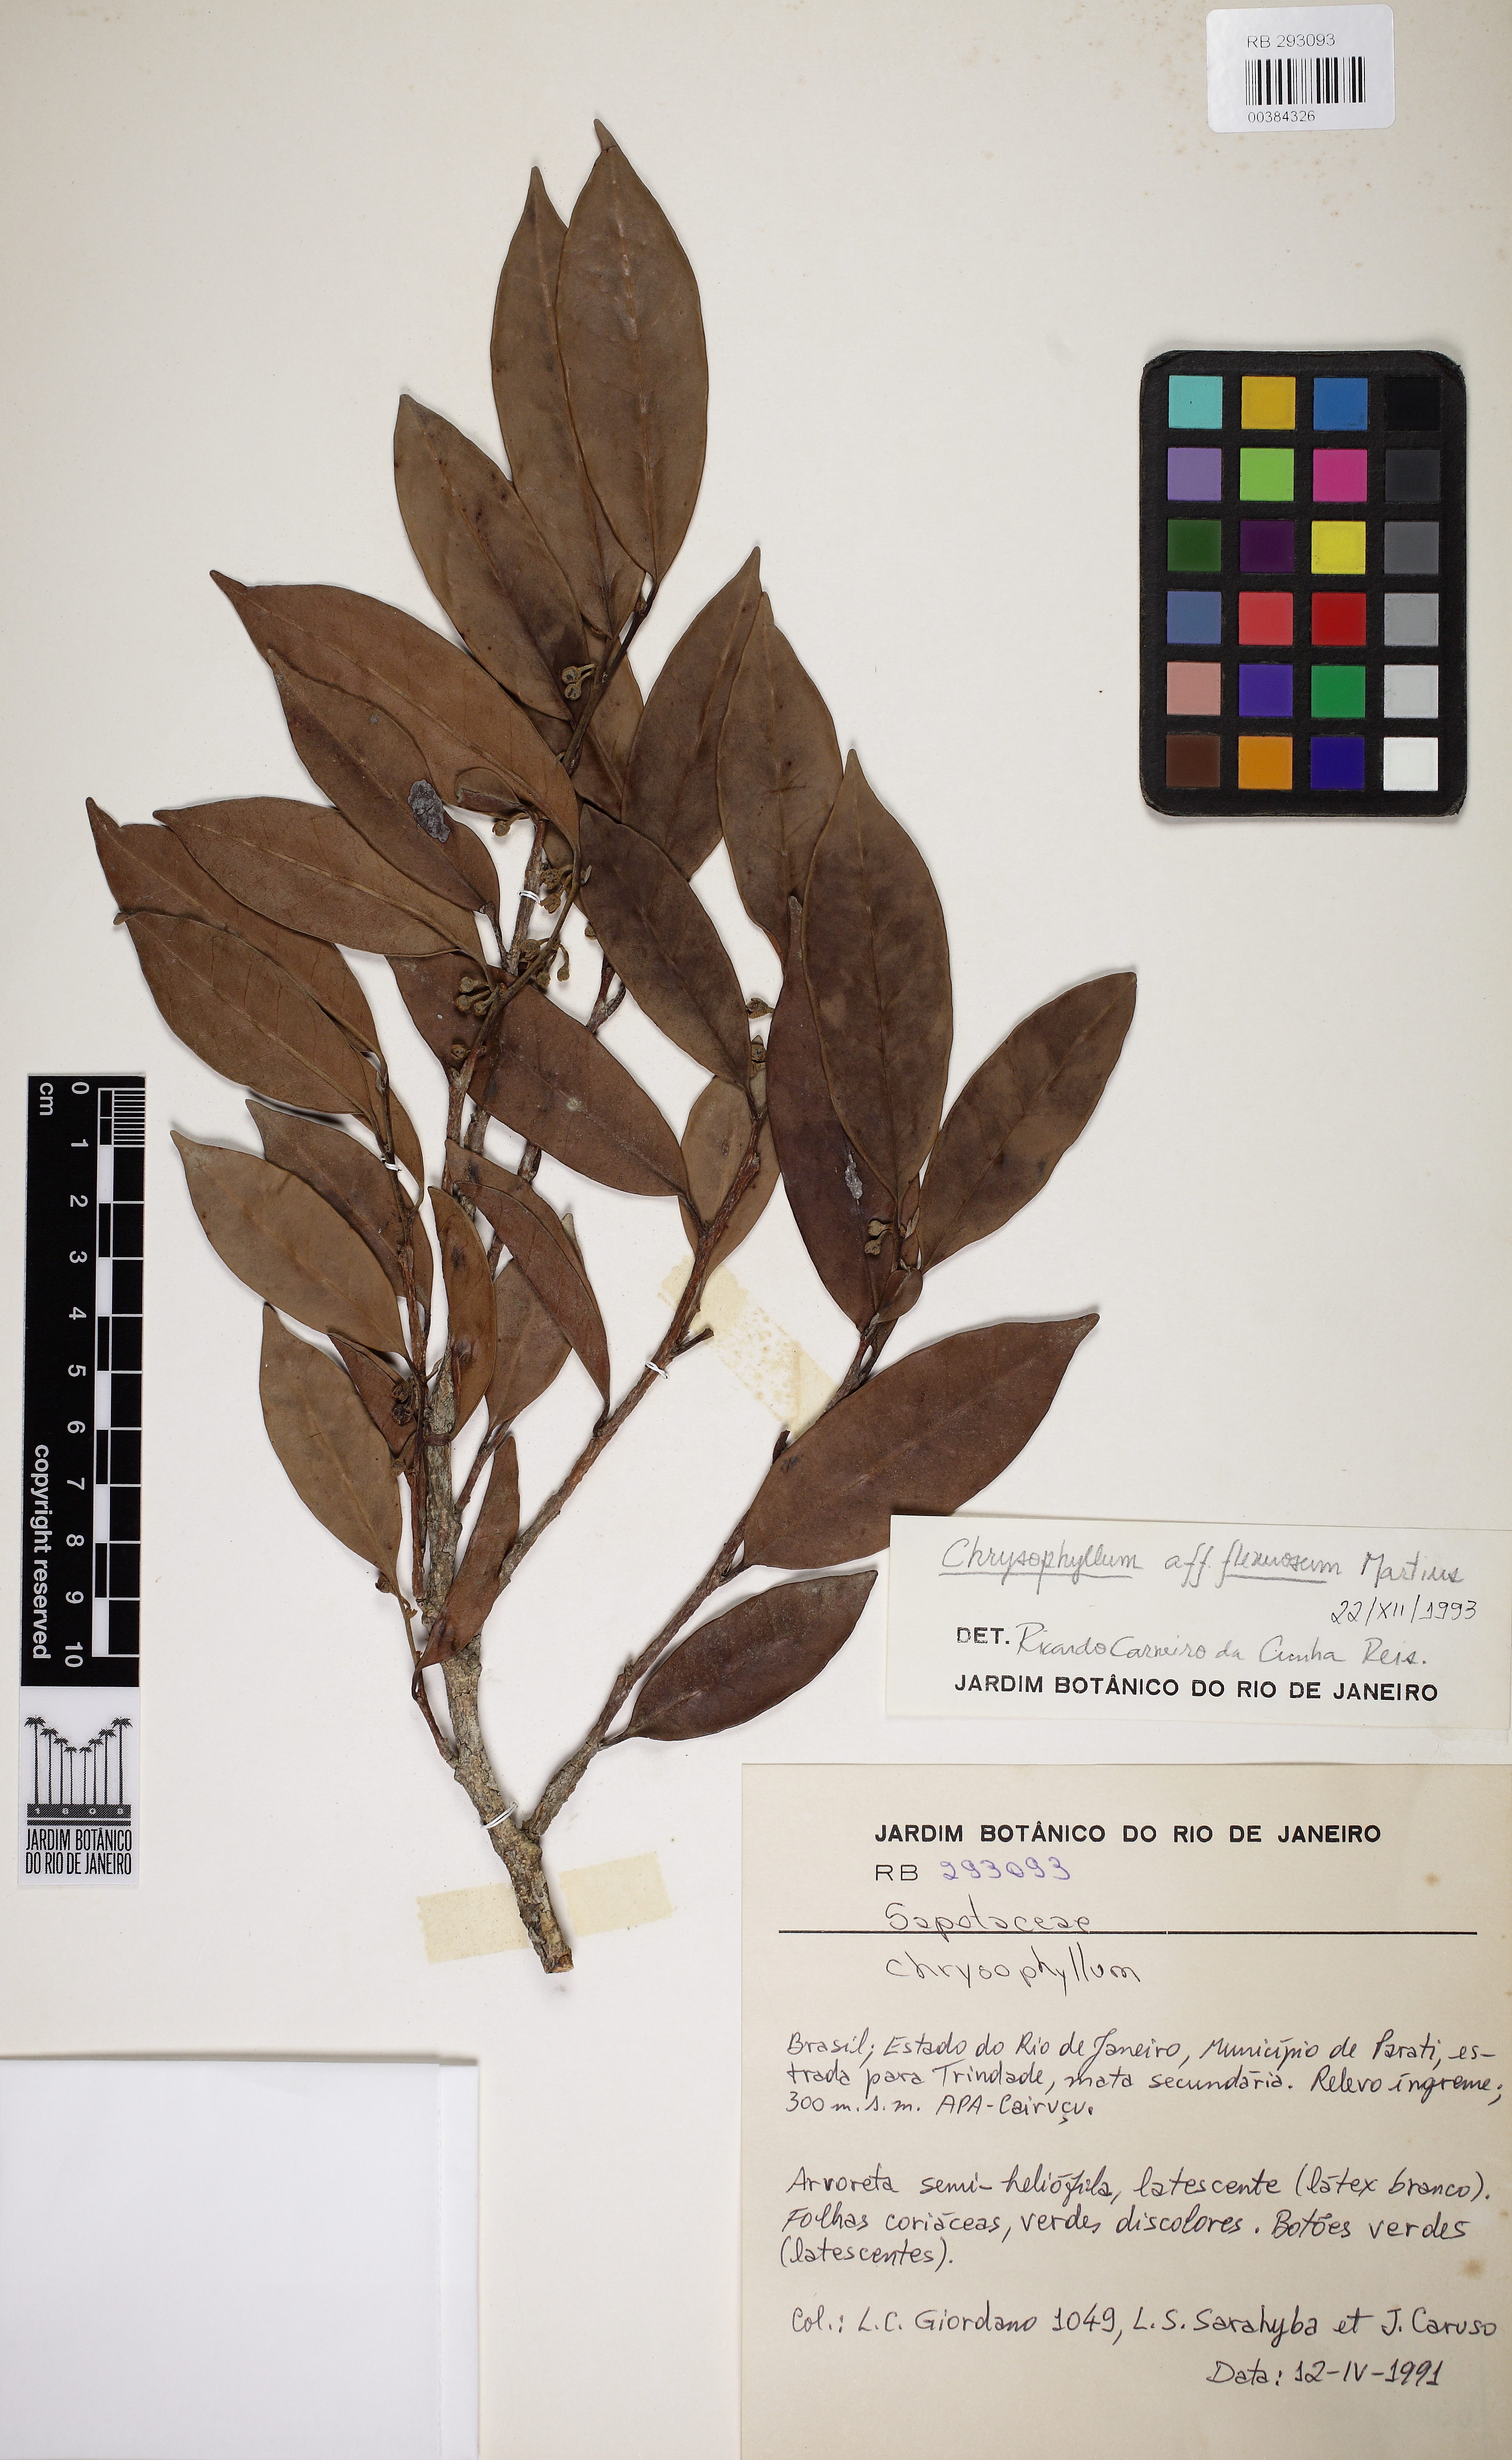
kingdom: Plantae
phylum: Tracheophyta
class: Magnoliopsida
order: Ericales
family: Sapotaceae
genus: Chrysophyllum
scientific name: Chrysophyllum flexuosum
